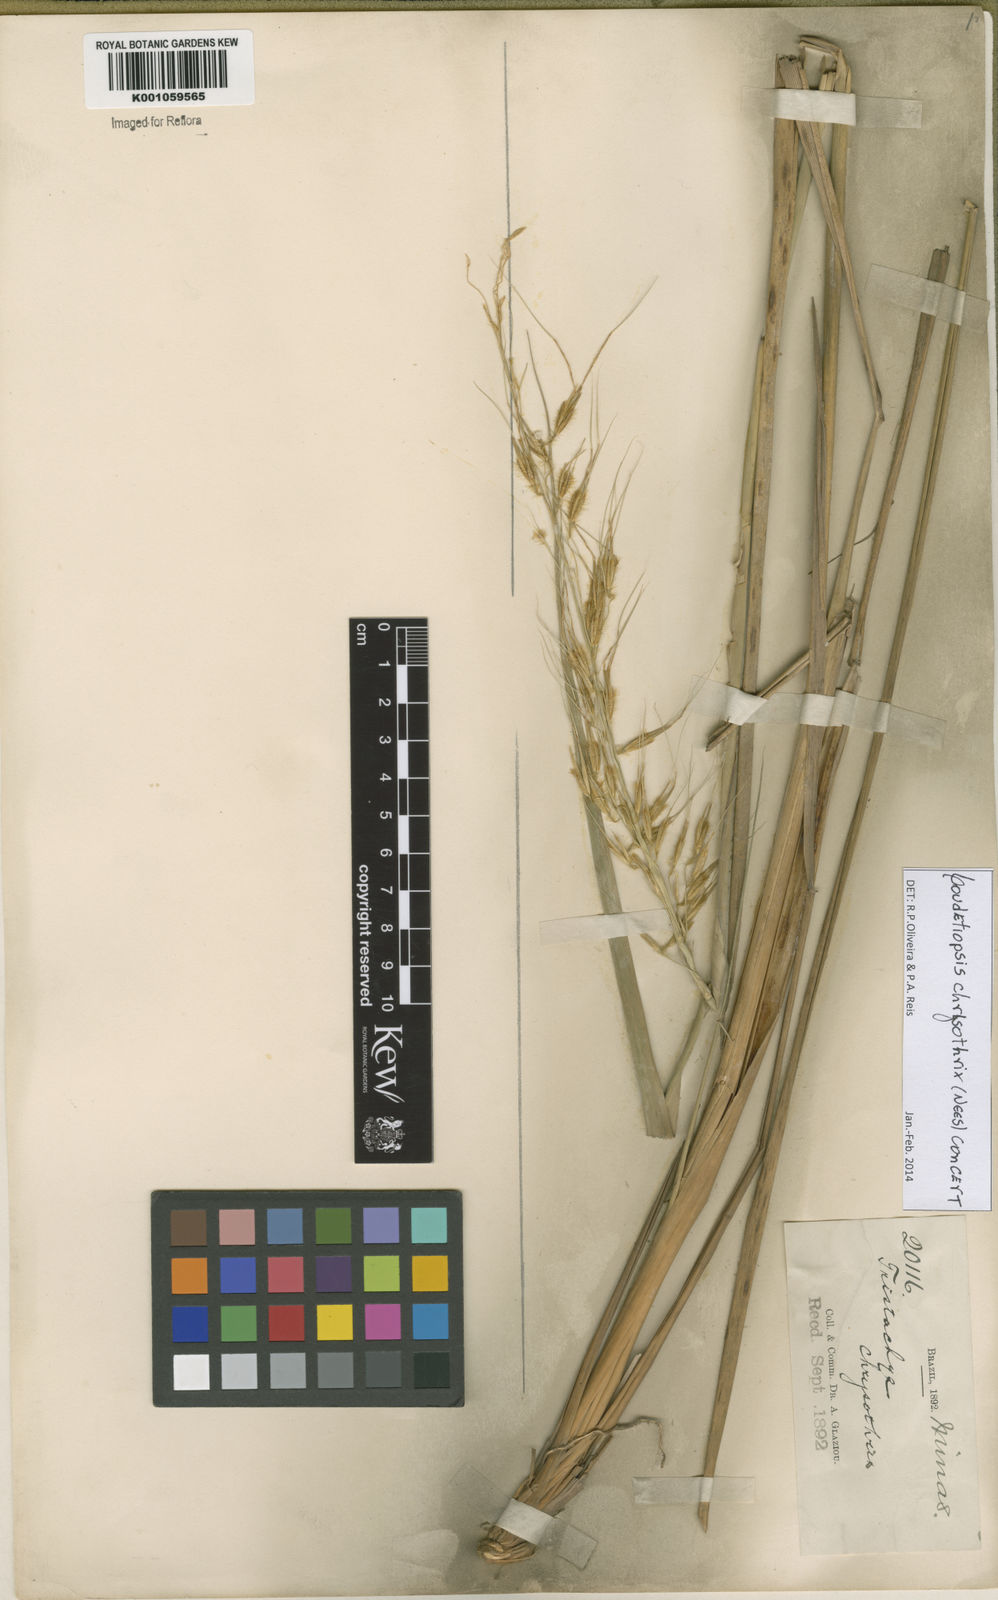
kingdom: Plantae
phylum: Tracheophyta
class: Liliopsida
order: Poales
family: Poaceae
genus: Loudetiopsis
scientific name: Loudetiopsis chrysothrix
